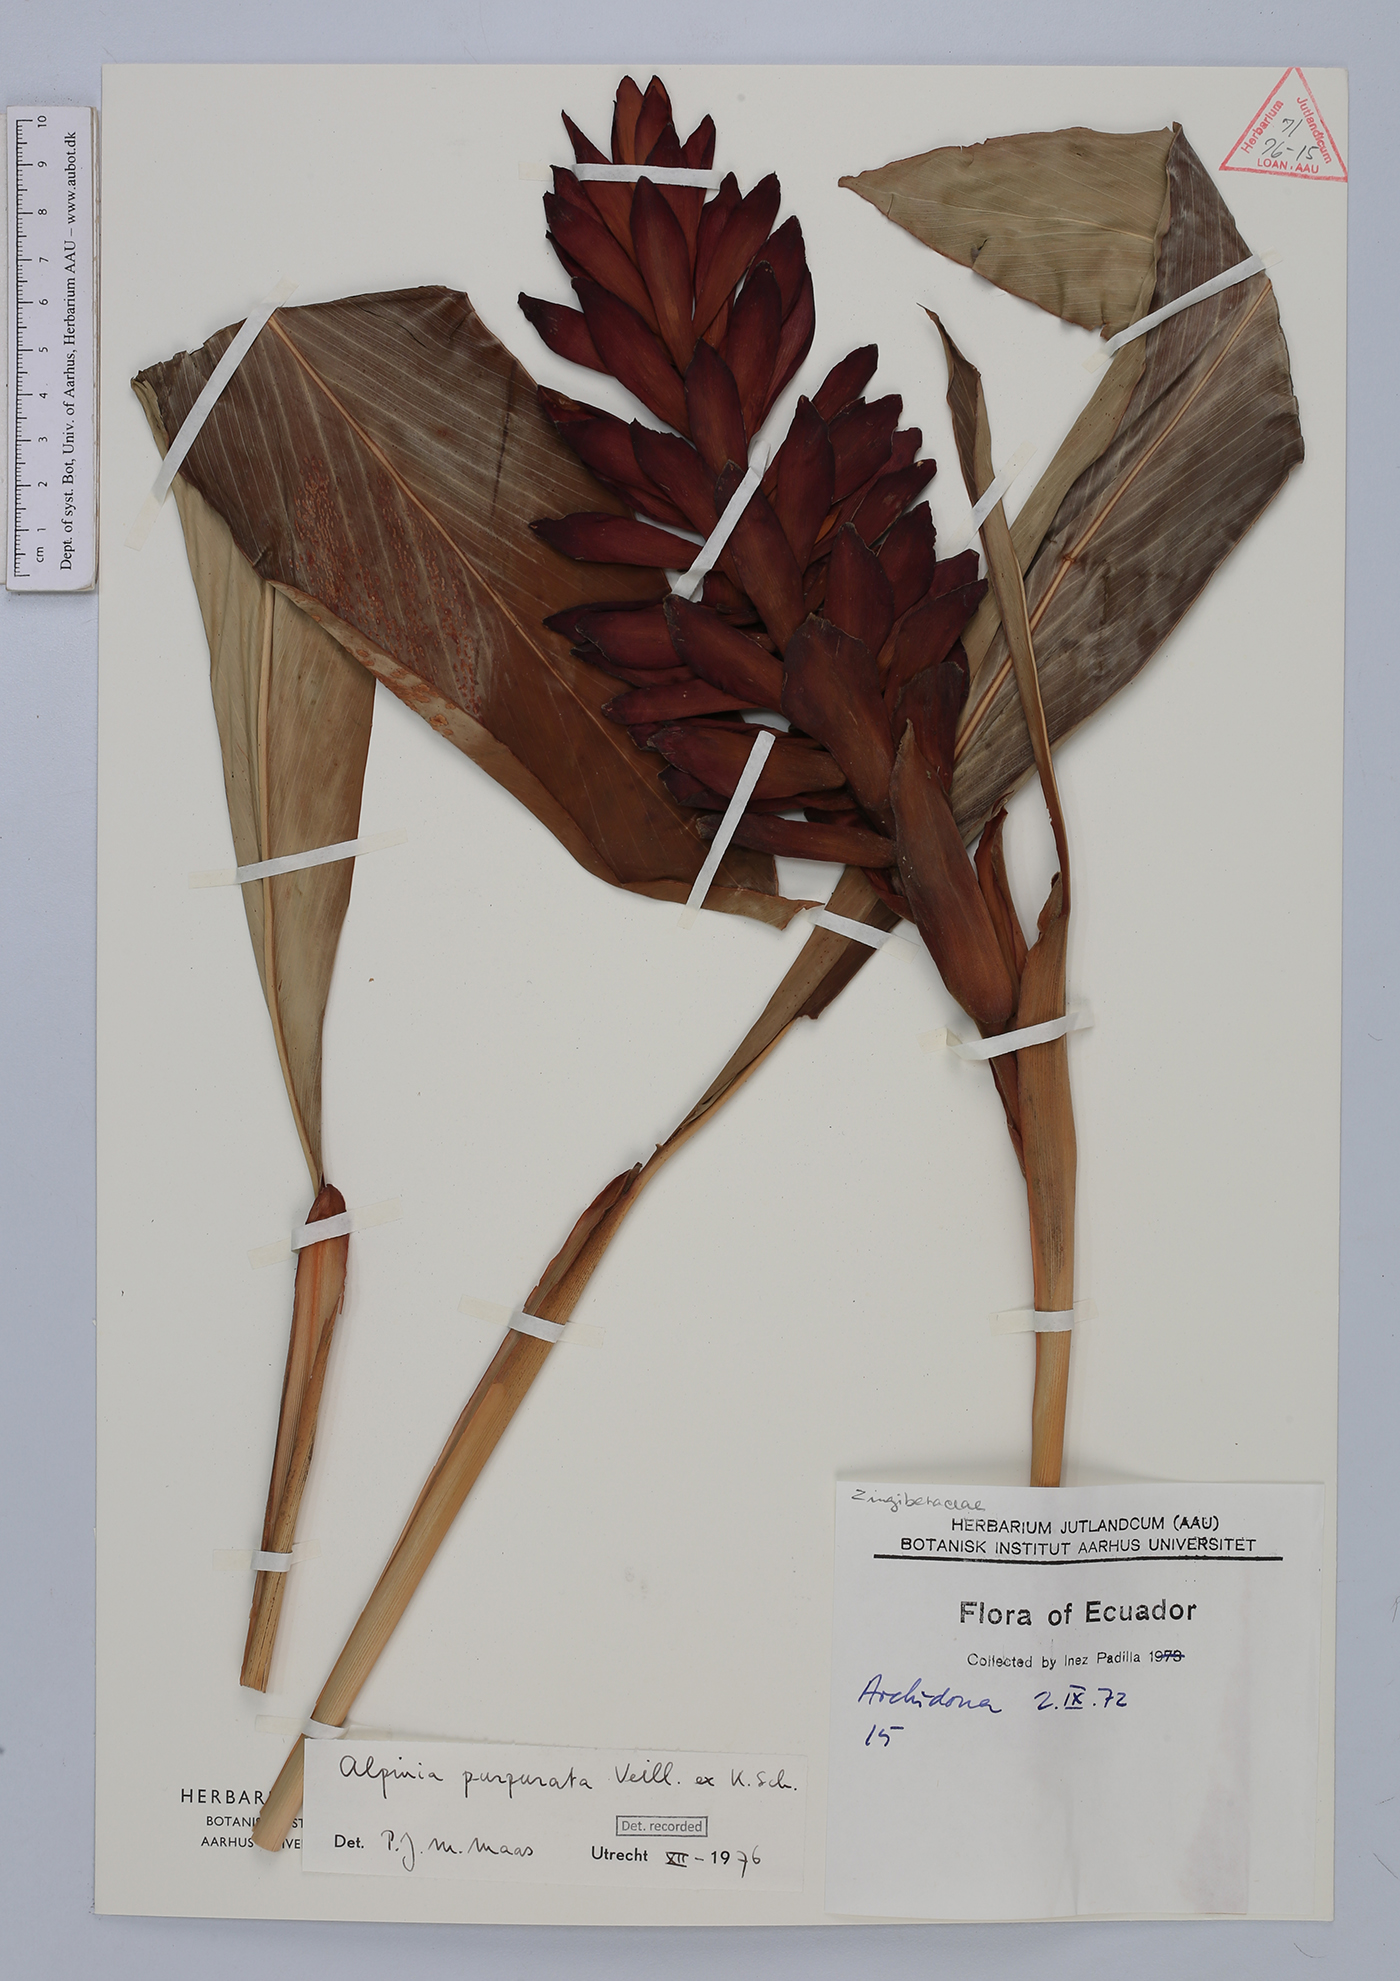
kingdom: Plantae
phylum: Tracheophyta
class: Liliopsida
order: Zingiberales
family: Zingiberaceae
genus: Alpinia
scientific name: Alpinia purpurata
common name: Red ginger
